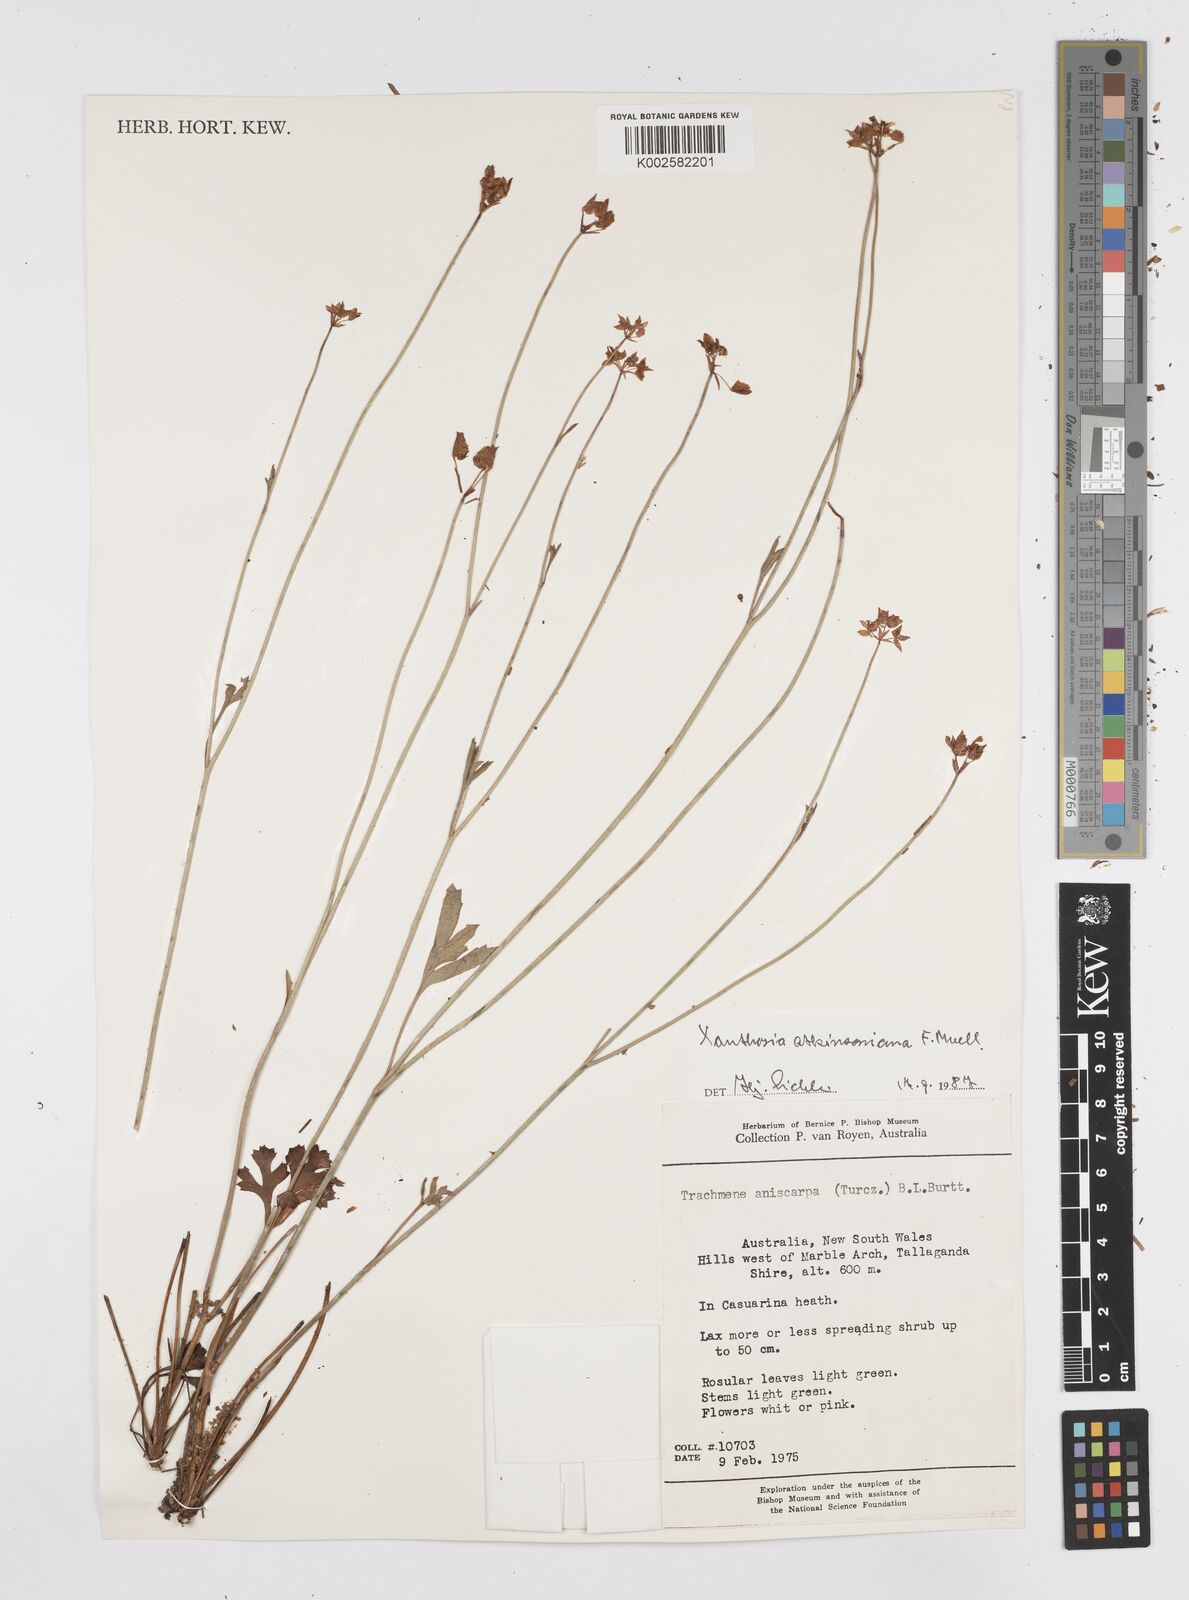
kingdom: Plantae
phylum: Tracheophyta
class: Magnoliopsida
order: Apiales
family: Apiaceae
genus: Xanthosia
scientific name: Xanthosia atkinsoniana
